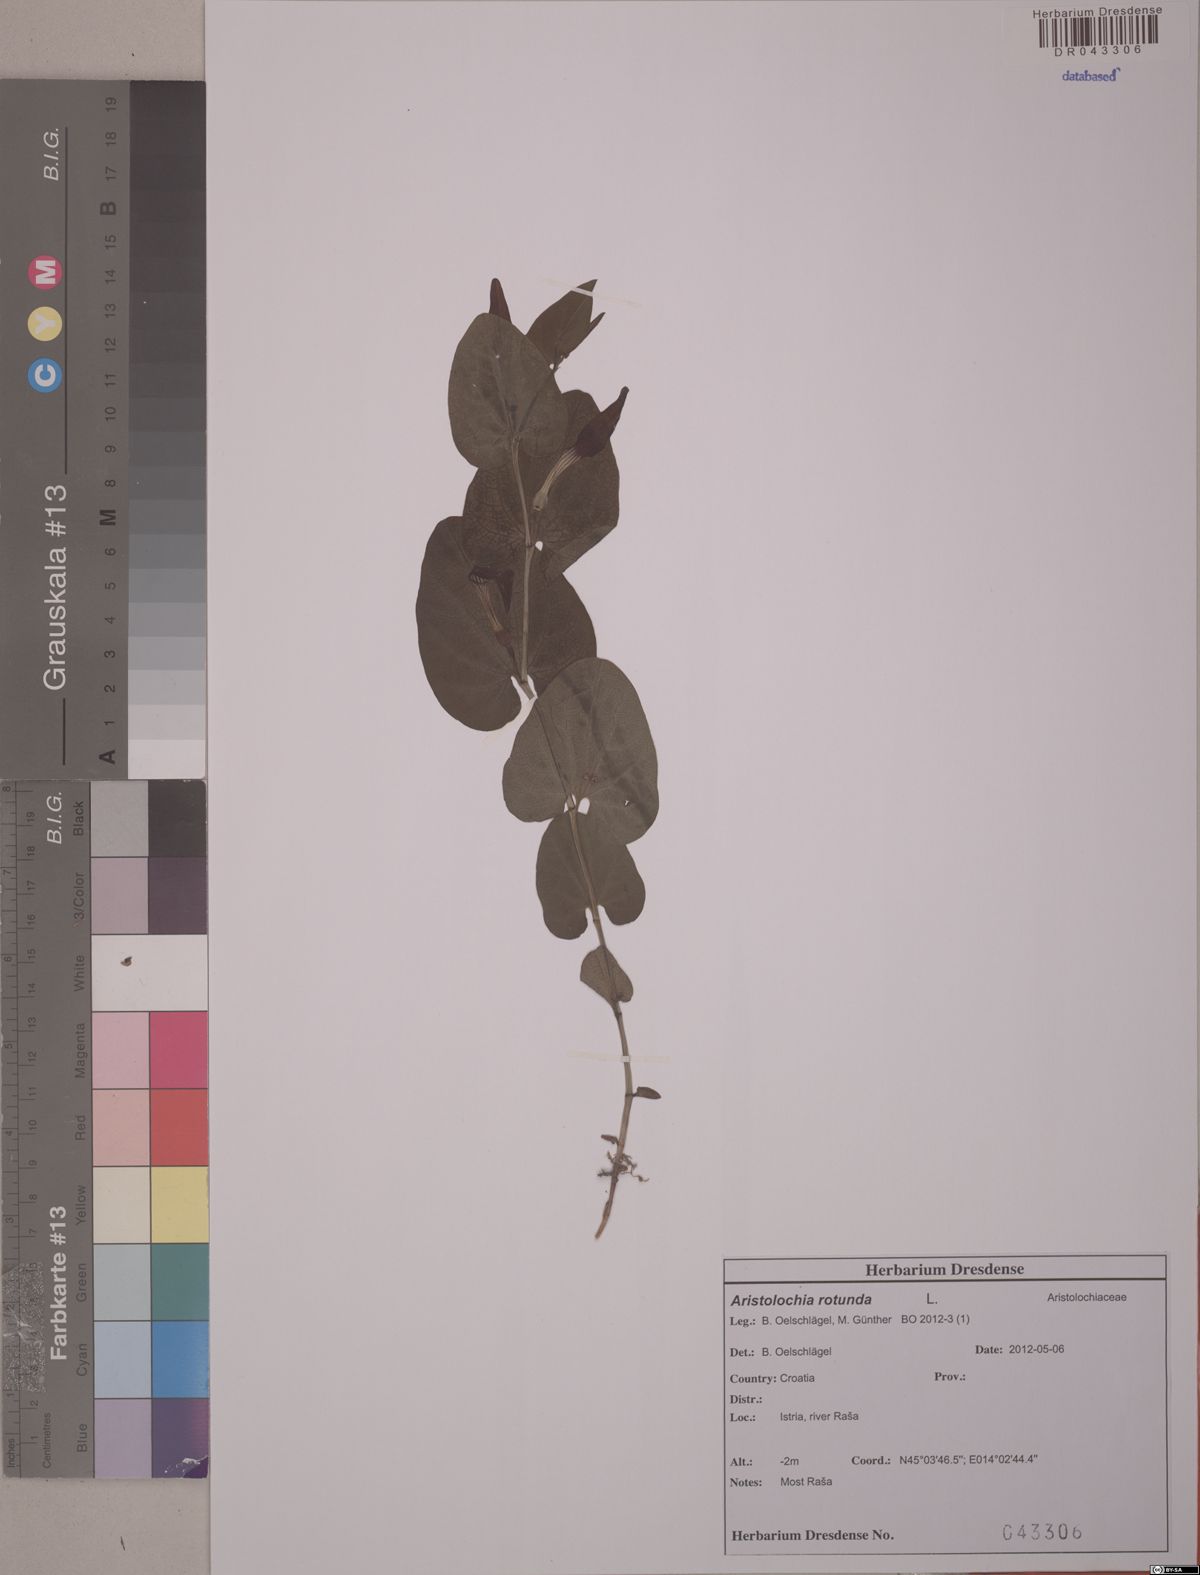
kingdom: Plantae
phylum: Tracheophyta
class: Magnoliopsida
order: Piperales
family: Aristolochiaceae
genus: Aristolochia
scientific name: Aristolochia rotunda
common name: Smearwort
